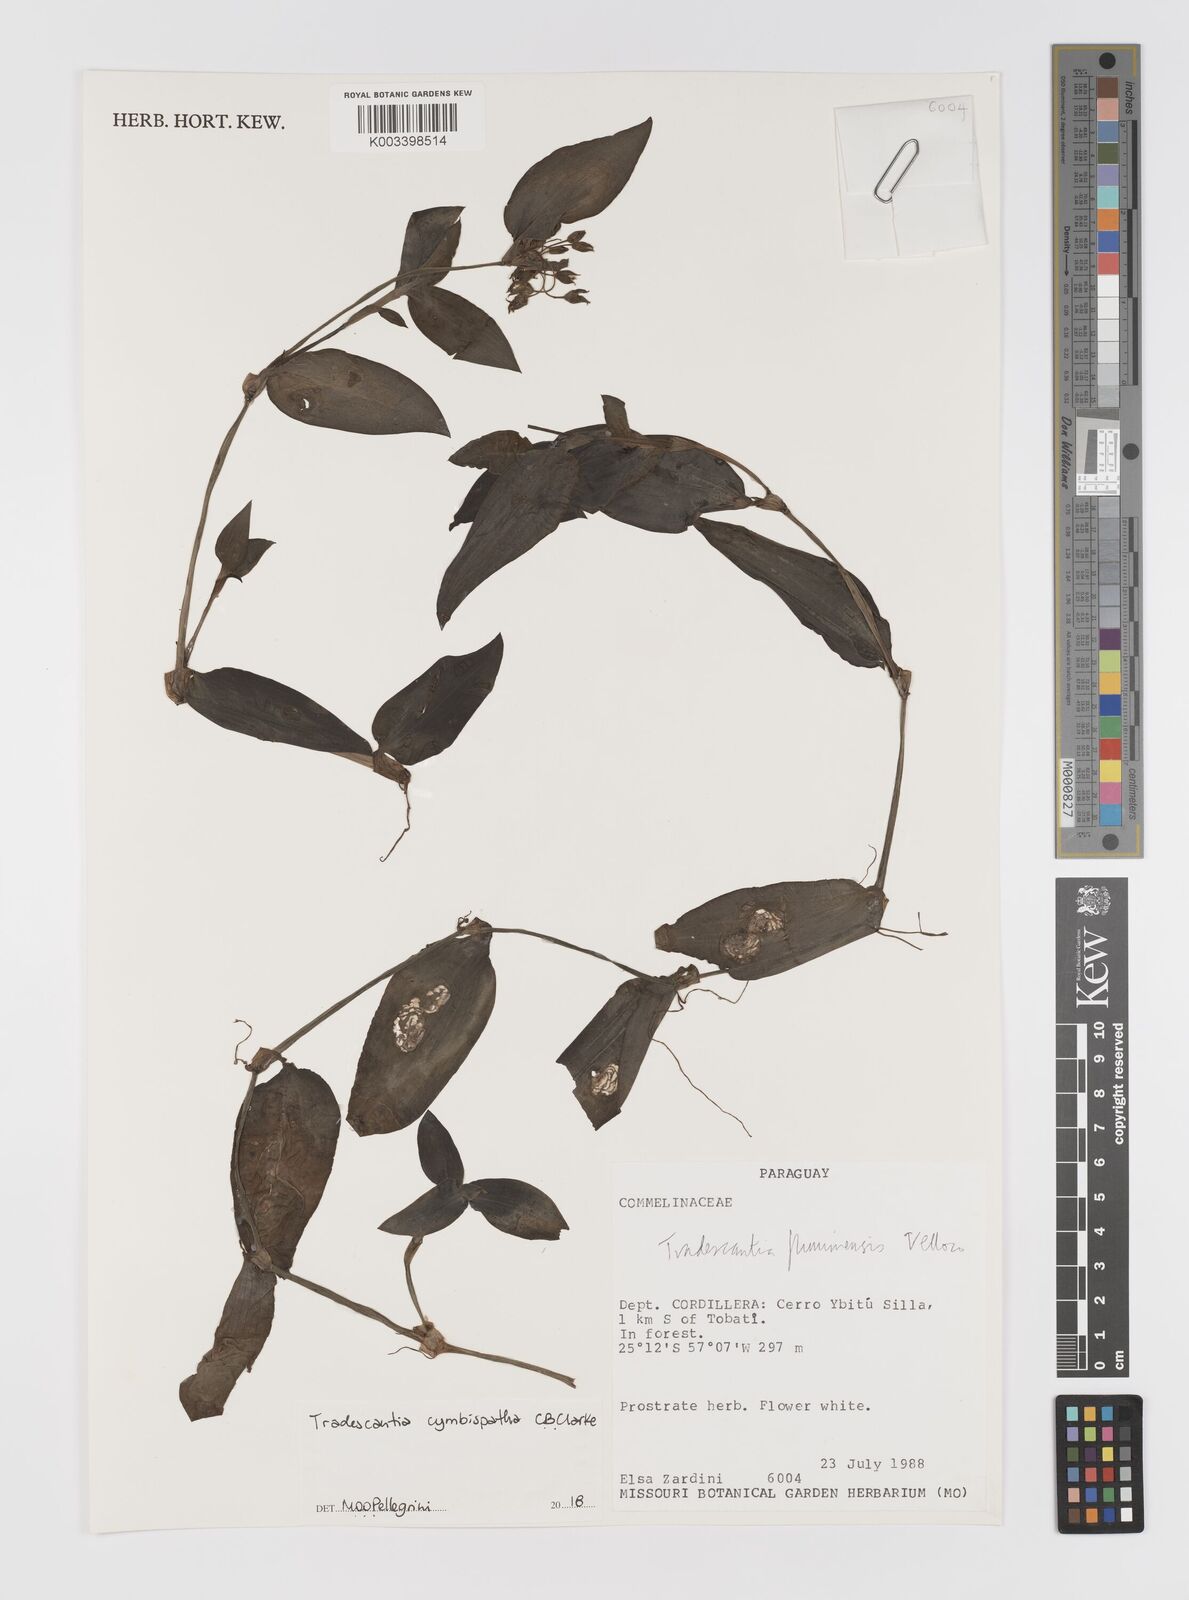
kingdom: Plantae
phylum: Tracheophyta
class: Liliopsida
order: Commelinales
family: Commelinaceae
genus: Tradescantia
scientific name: Tradescantia cymbispatha
